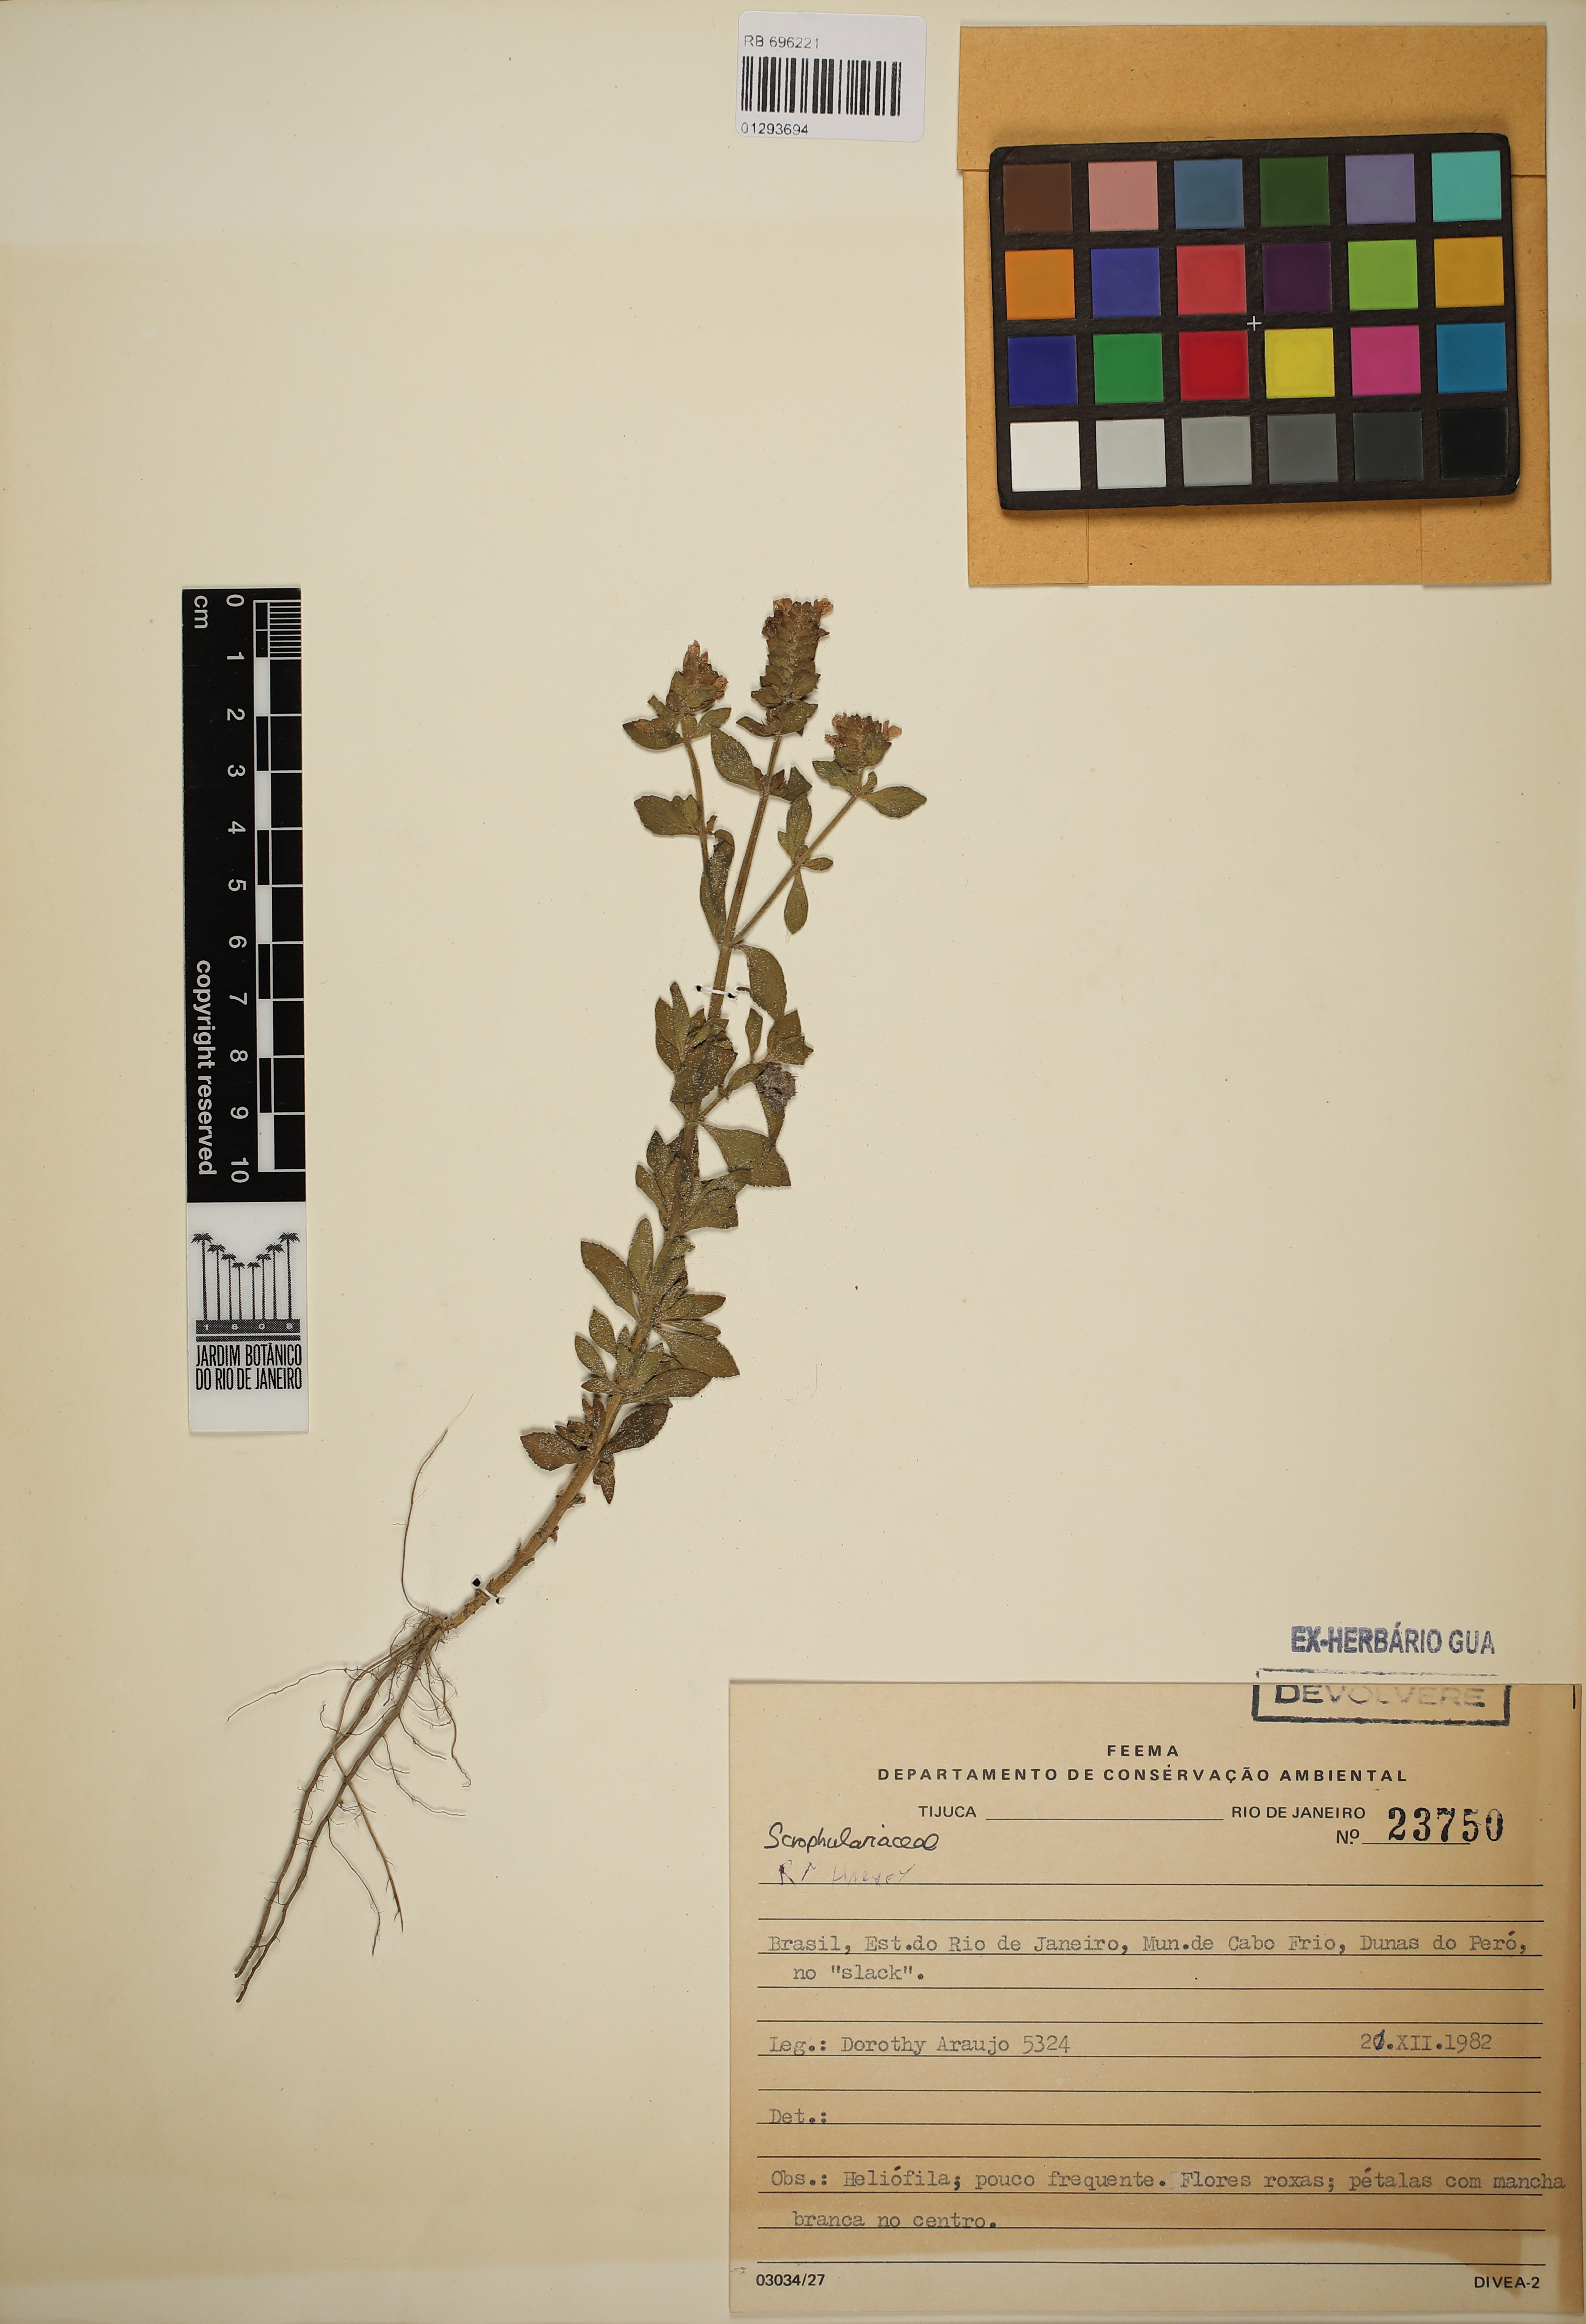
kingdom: Plantae
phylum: Tracheophyta
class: Magnoliopsida
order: Lamiales
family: Scrophulariaceae
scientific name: Scrophulariaceae
